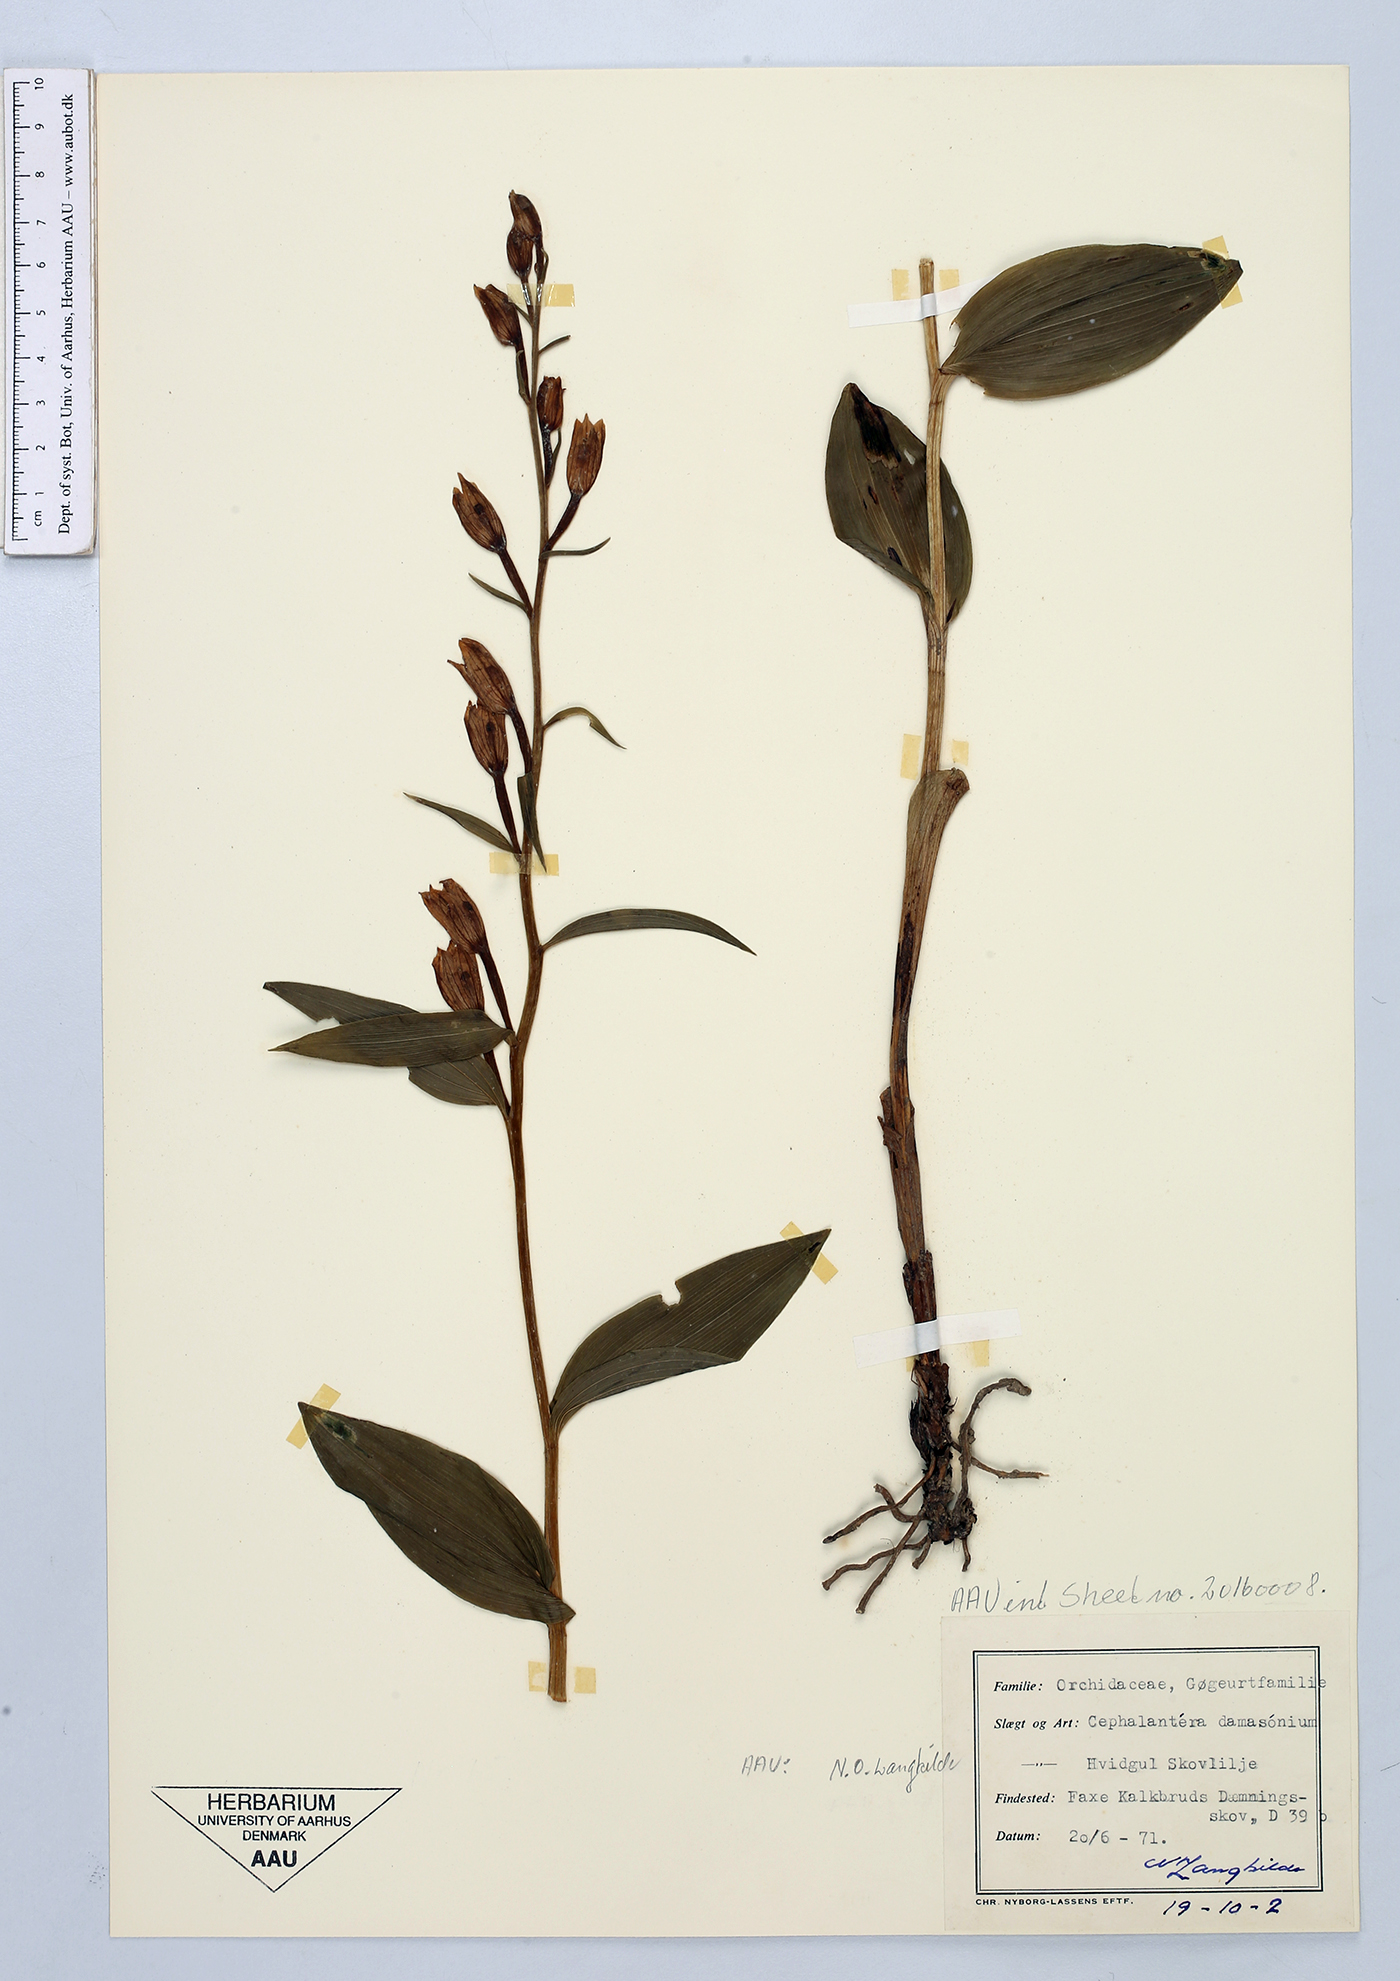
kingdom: Plantae
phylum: Tracheophyta
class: Liliopsida
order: Asparagales
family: Orchidaceae
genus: Cephalanthera
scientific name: Cephalanthera damasonium
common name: White helleborine
